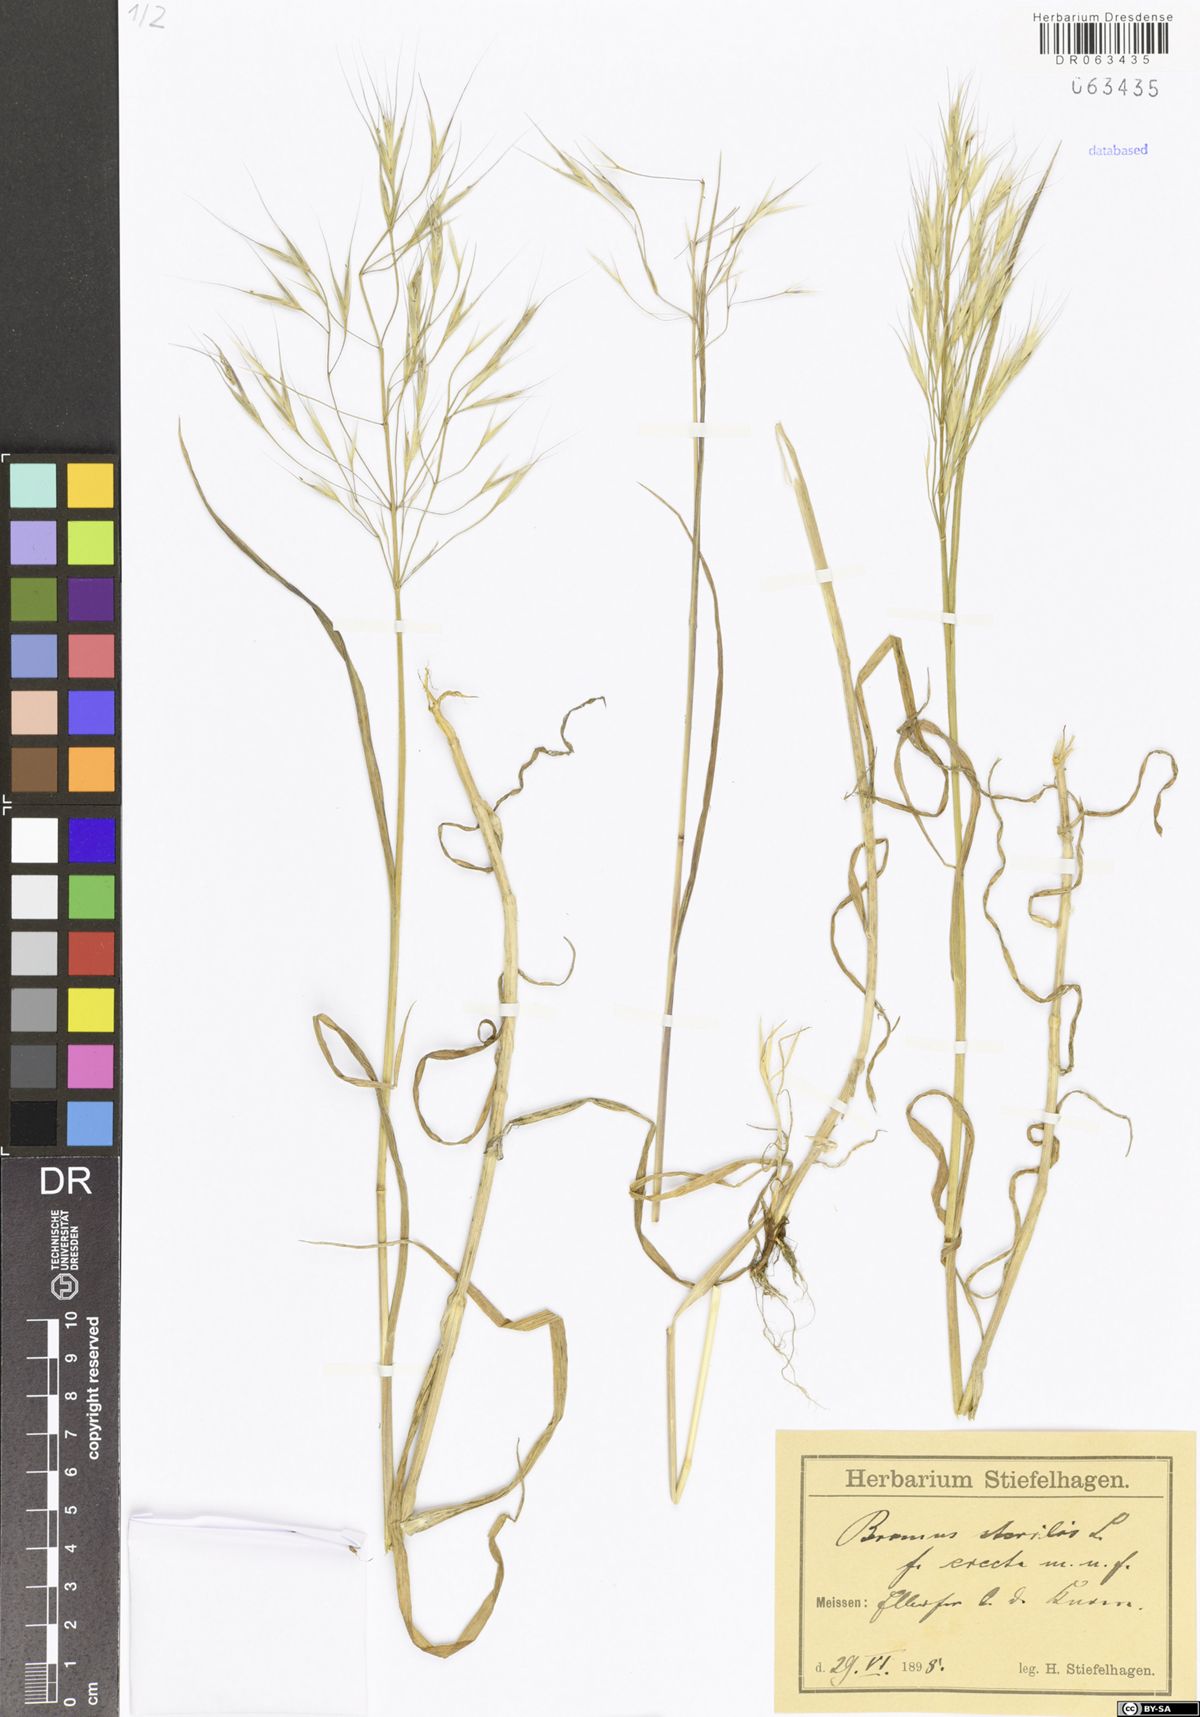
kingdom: Plantae
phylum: Tracheophyta
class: Liliopsida
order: Poales
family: Poaceae
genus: Bromus
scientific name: Bromus sterilis
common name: Poverty brome
